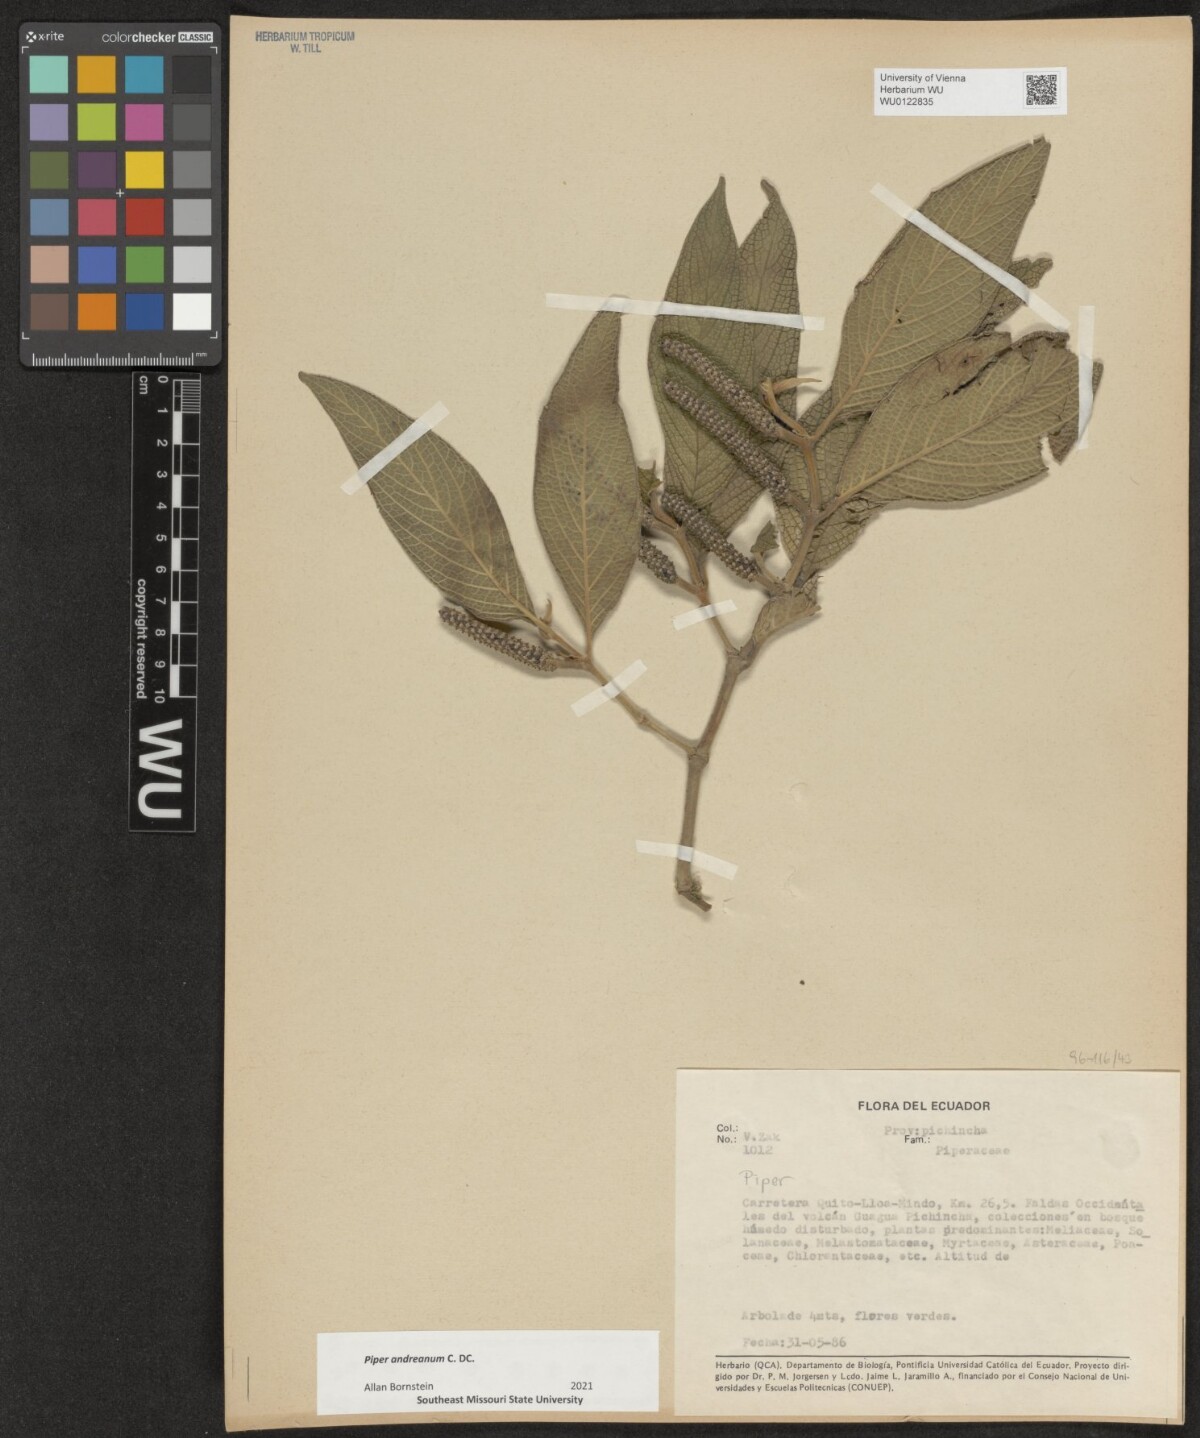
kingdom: Plantae
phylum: Tracheophyta
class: Magnoliopsida
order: Piperales
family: Piperaceae
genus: Piper
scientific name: Piper andreanum
